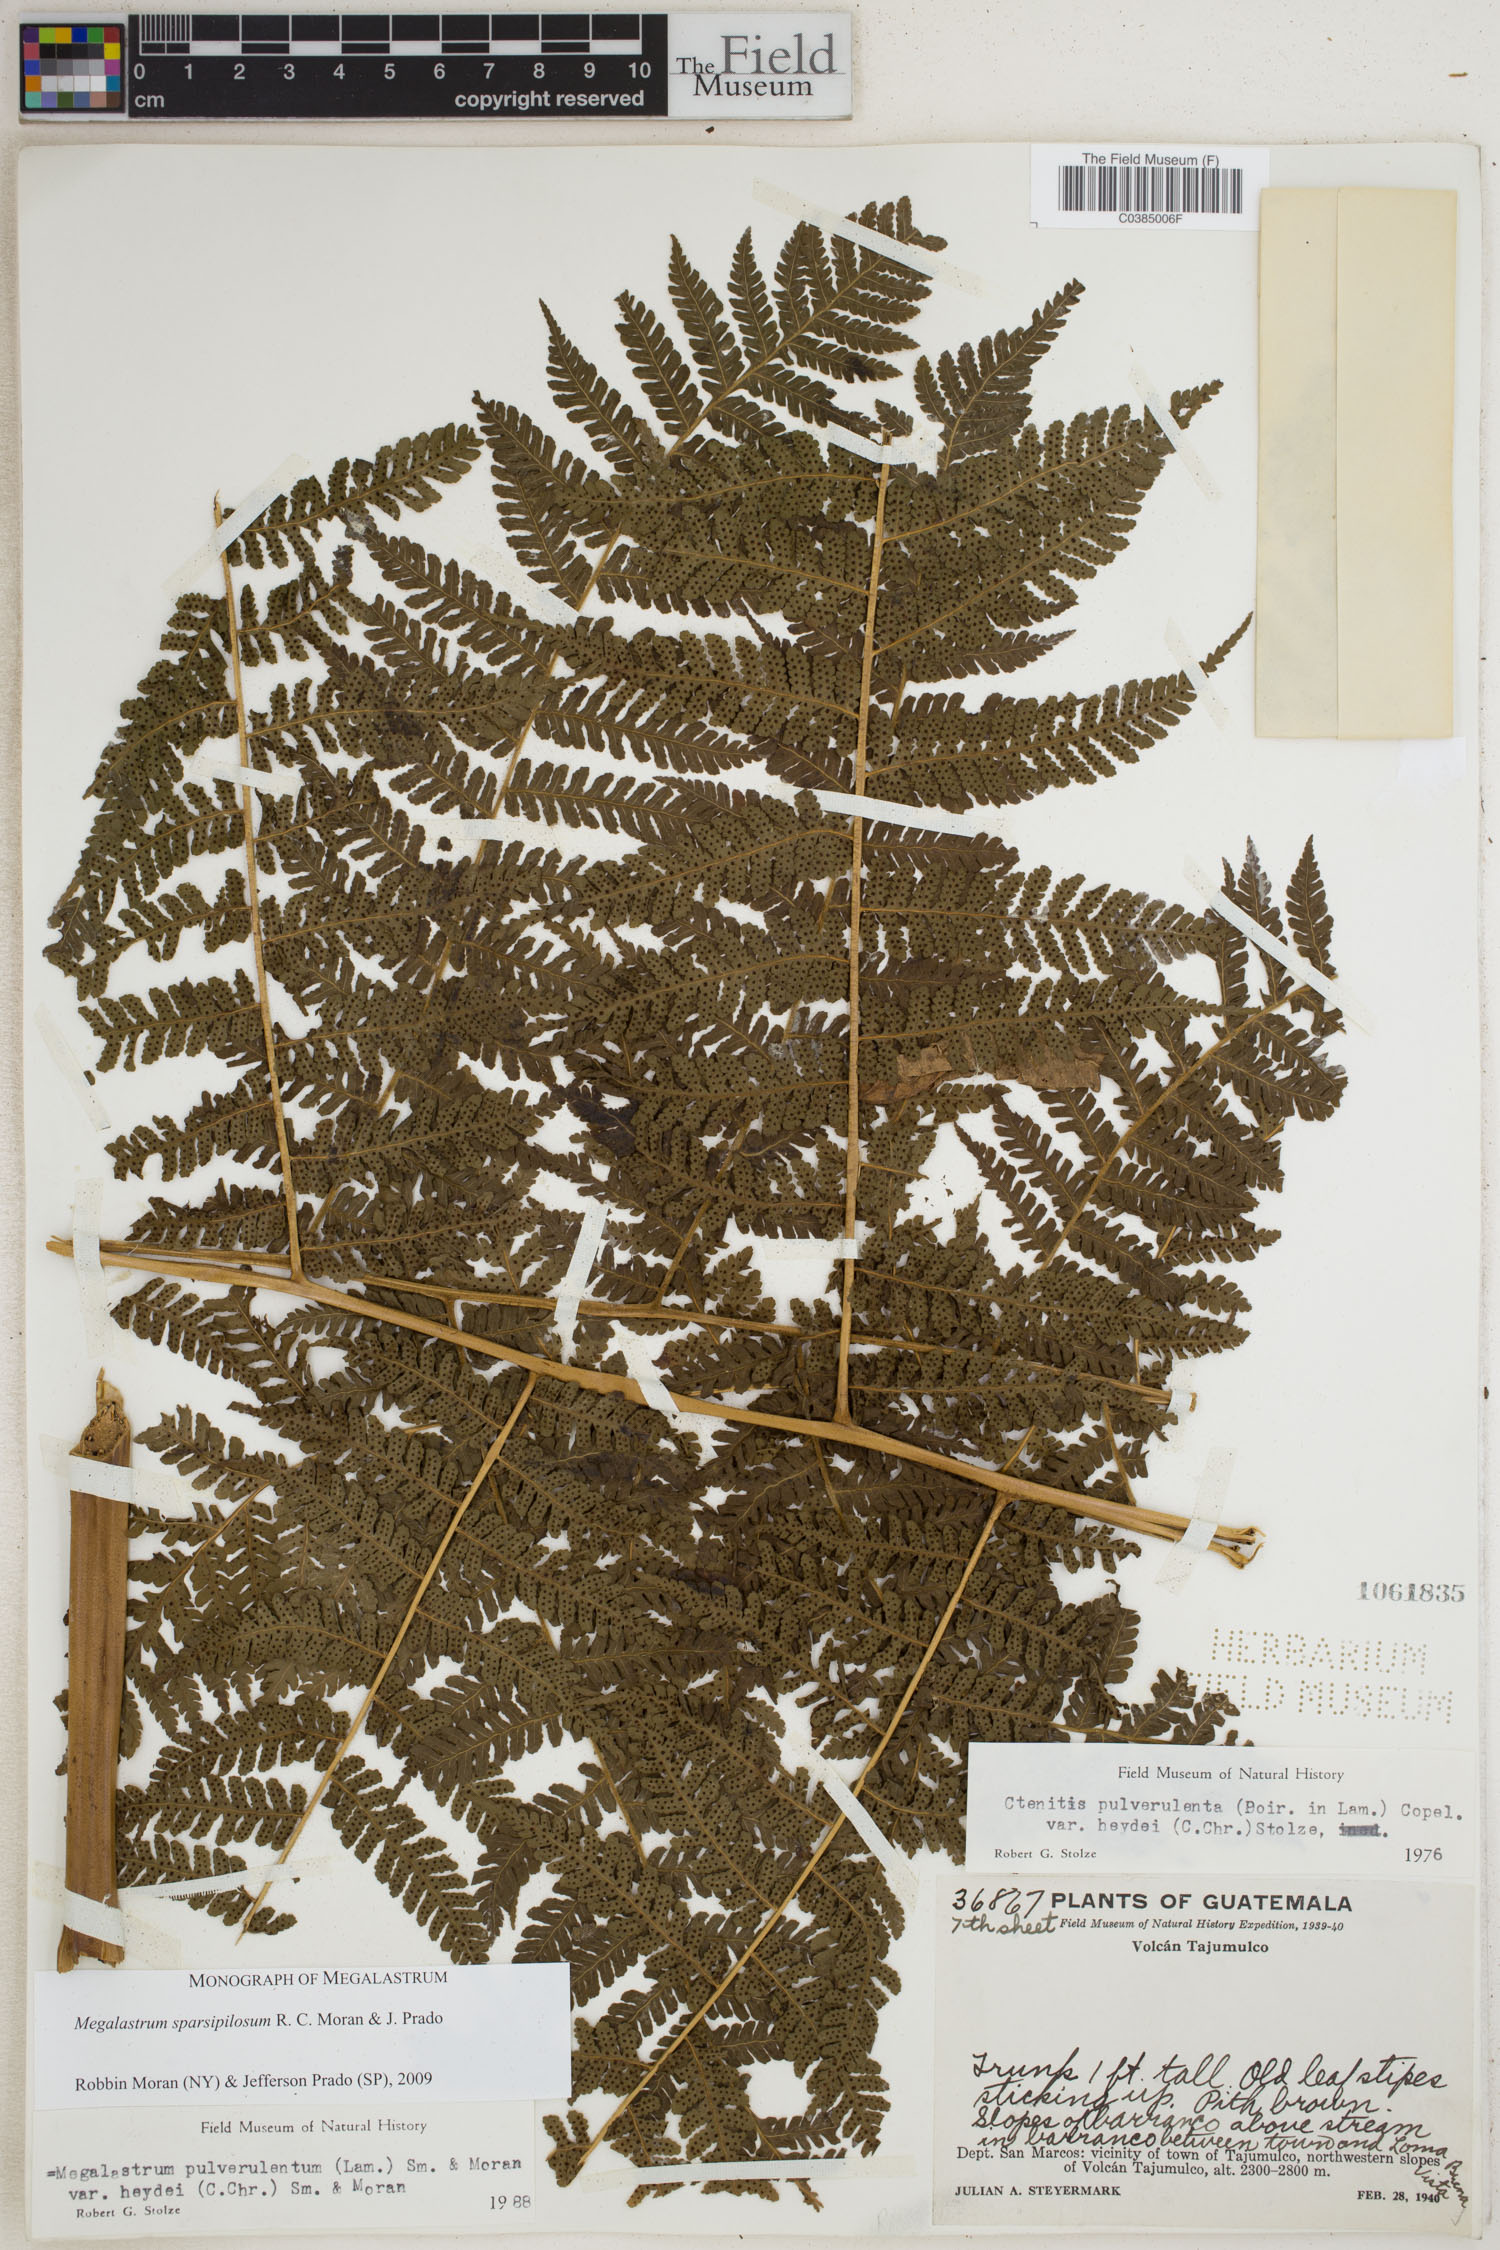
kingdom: Plantae
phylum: Tracheophyta
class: Polypodiopsida
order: Polypodiales
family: Dryopteridaceae
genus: Megalastrum
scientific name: Megalastrum sparsipilosum
